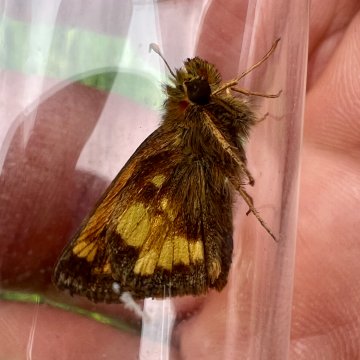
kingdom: Animalia
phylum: Arthropoda
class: Insecta
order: Lepidoptera
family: Hesperiidae
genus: Lon
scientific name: Lon hobomok
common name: Hobomok Skipper
